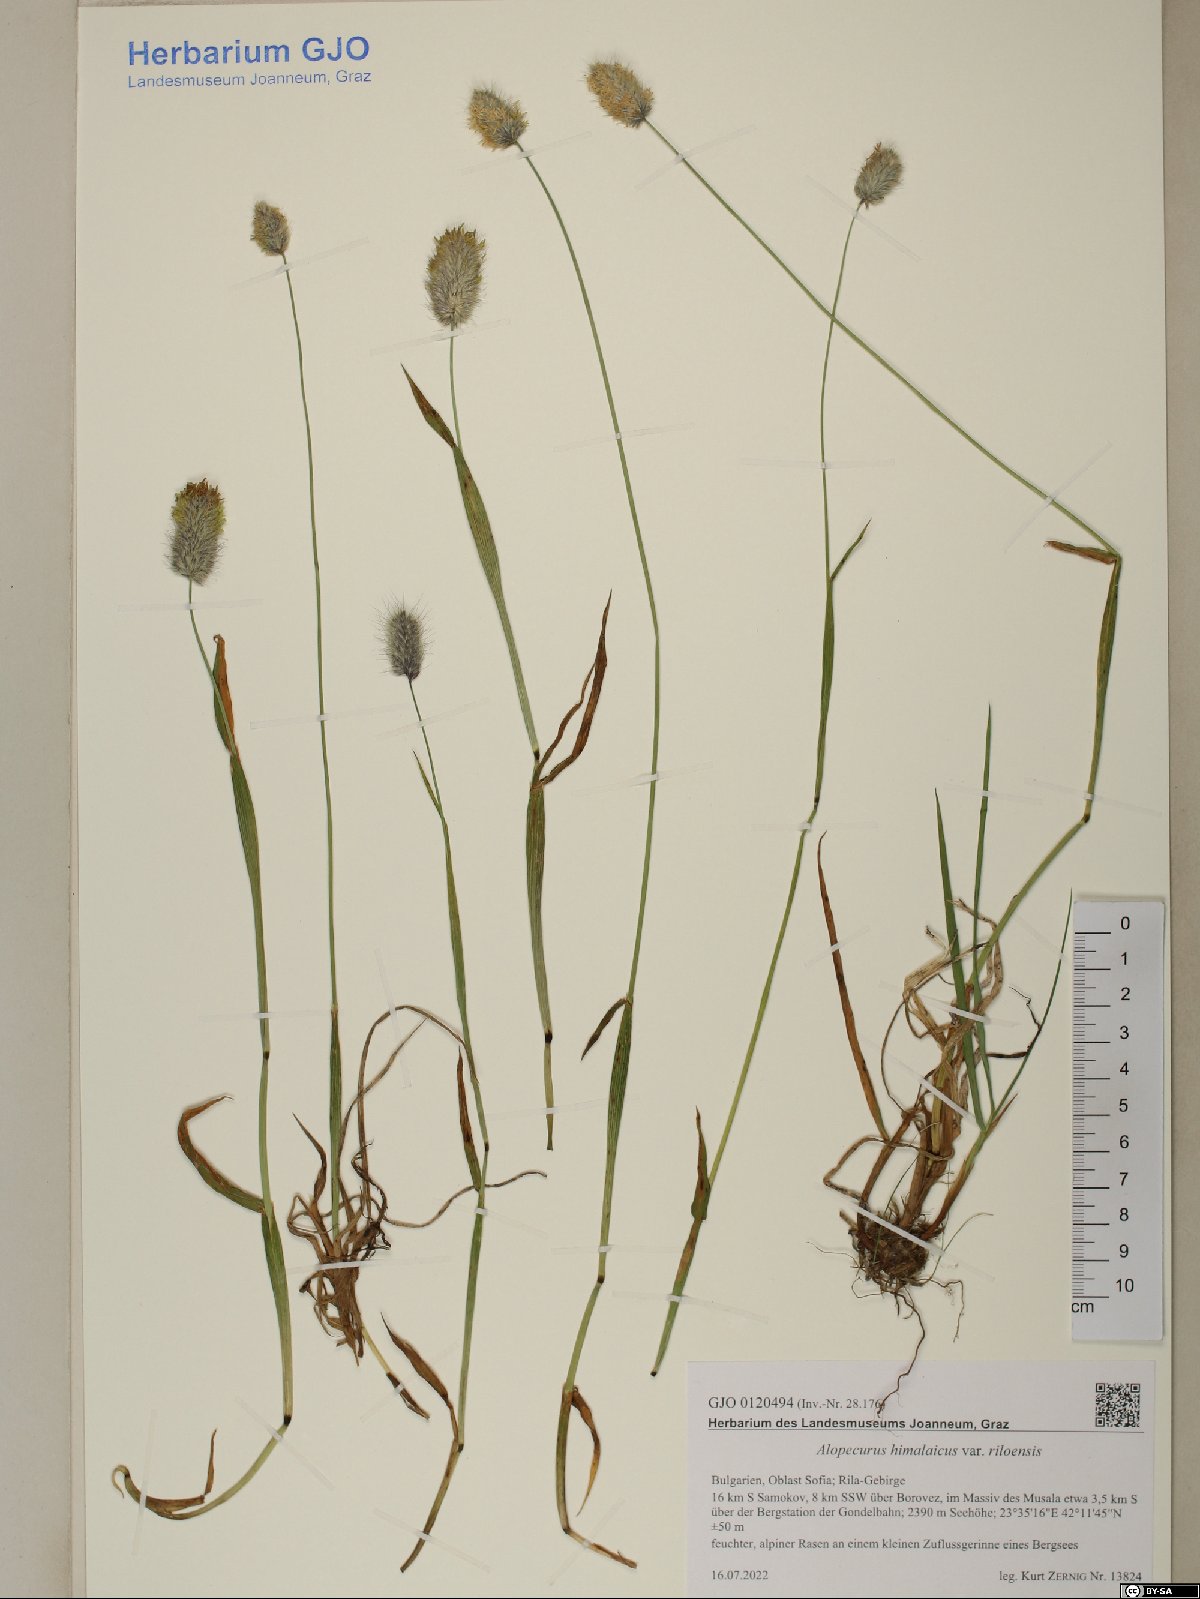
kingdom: Plantae
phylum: Tracheophyta
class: Liliopsida
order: Poales
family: Poaceae
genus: Alopecurus
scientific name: Alopecurus himalaicus
